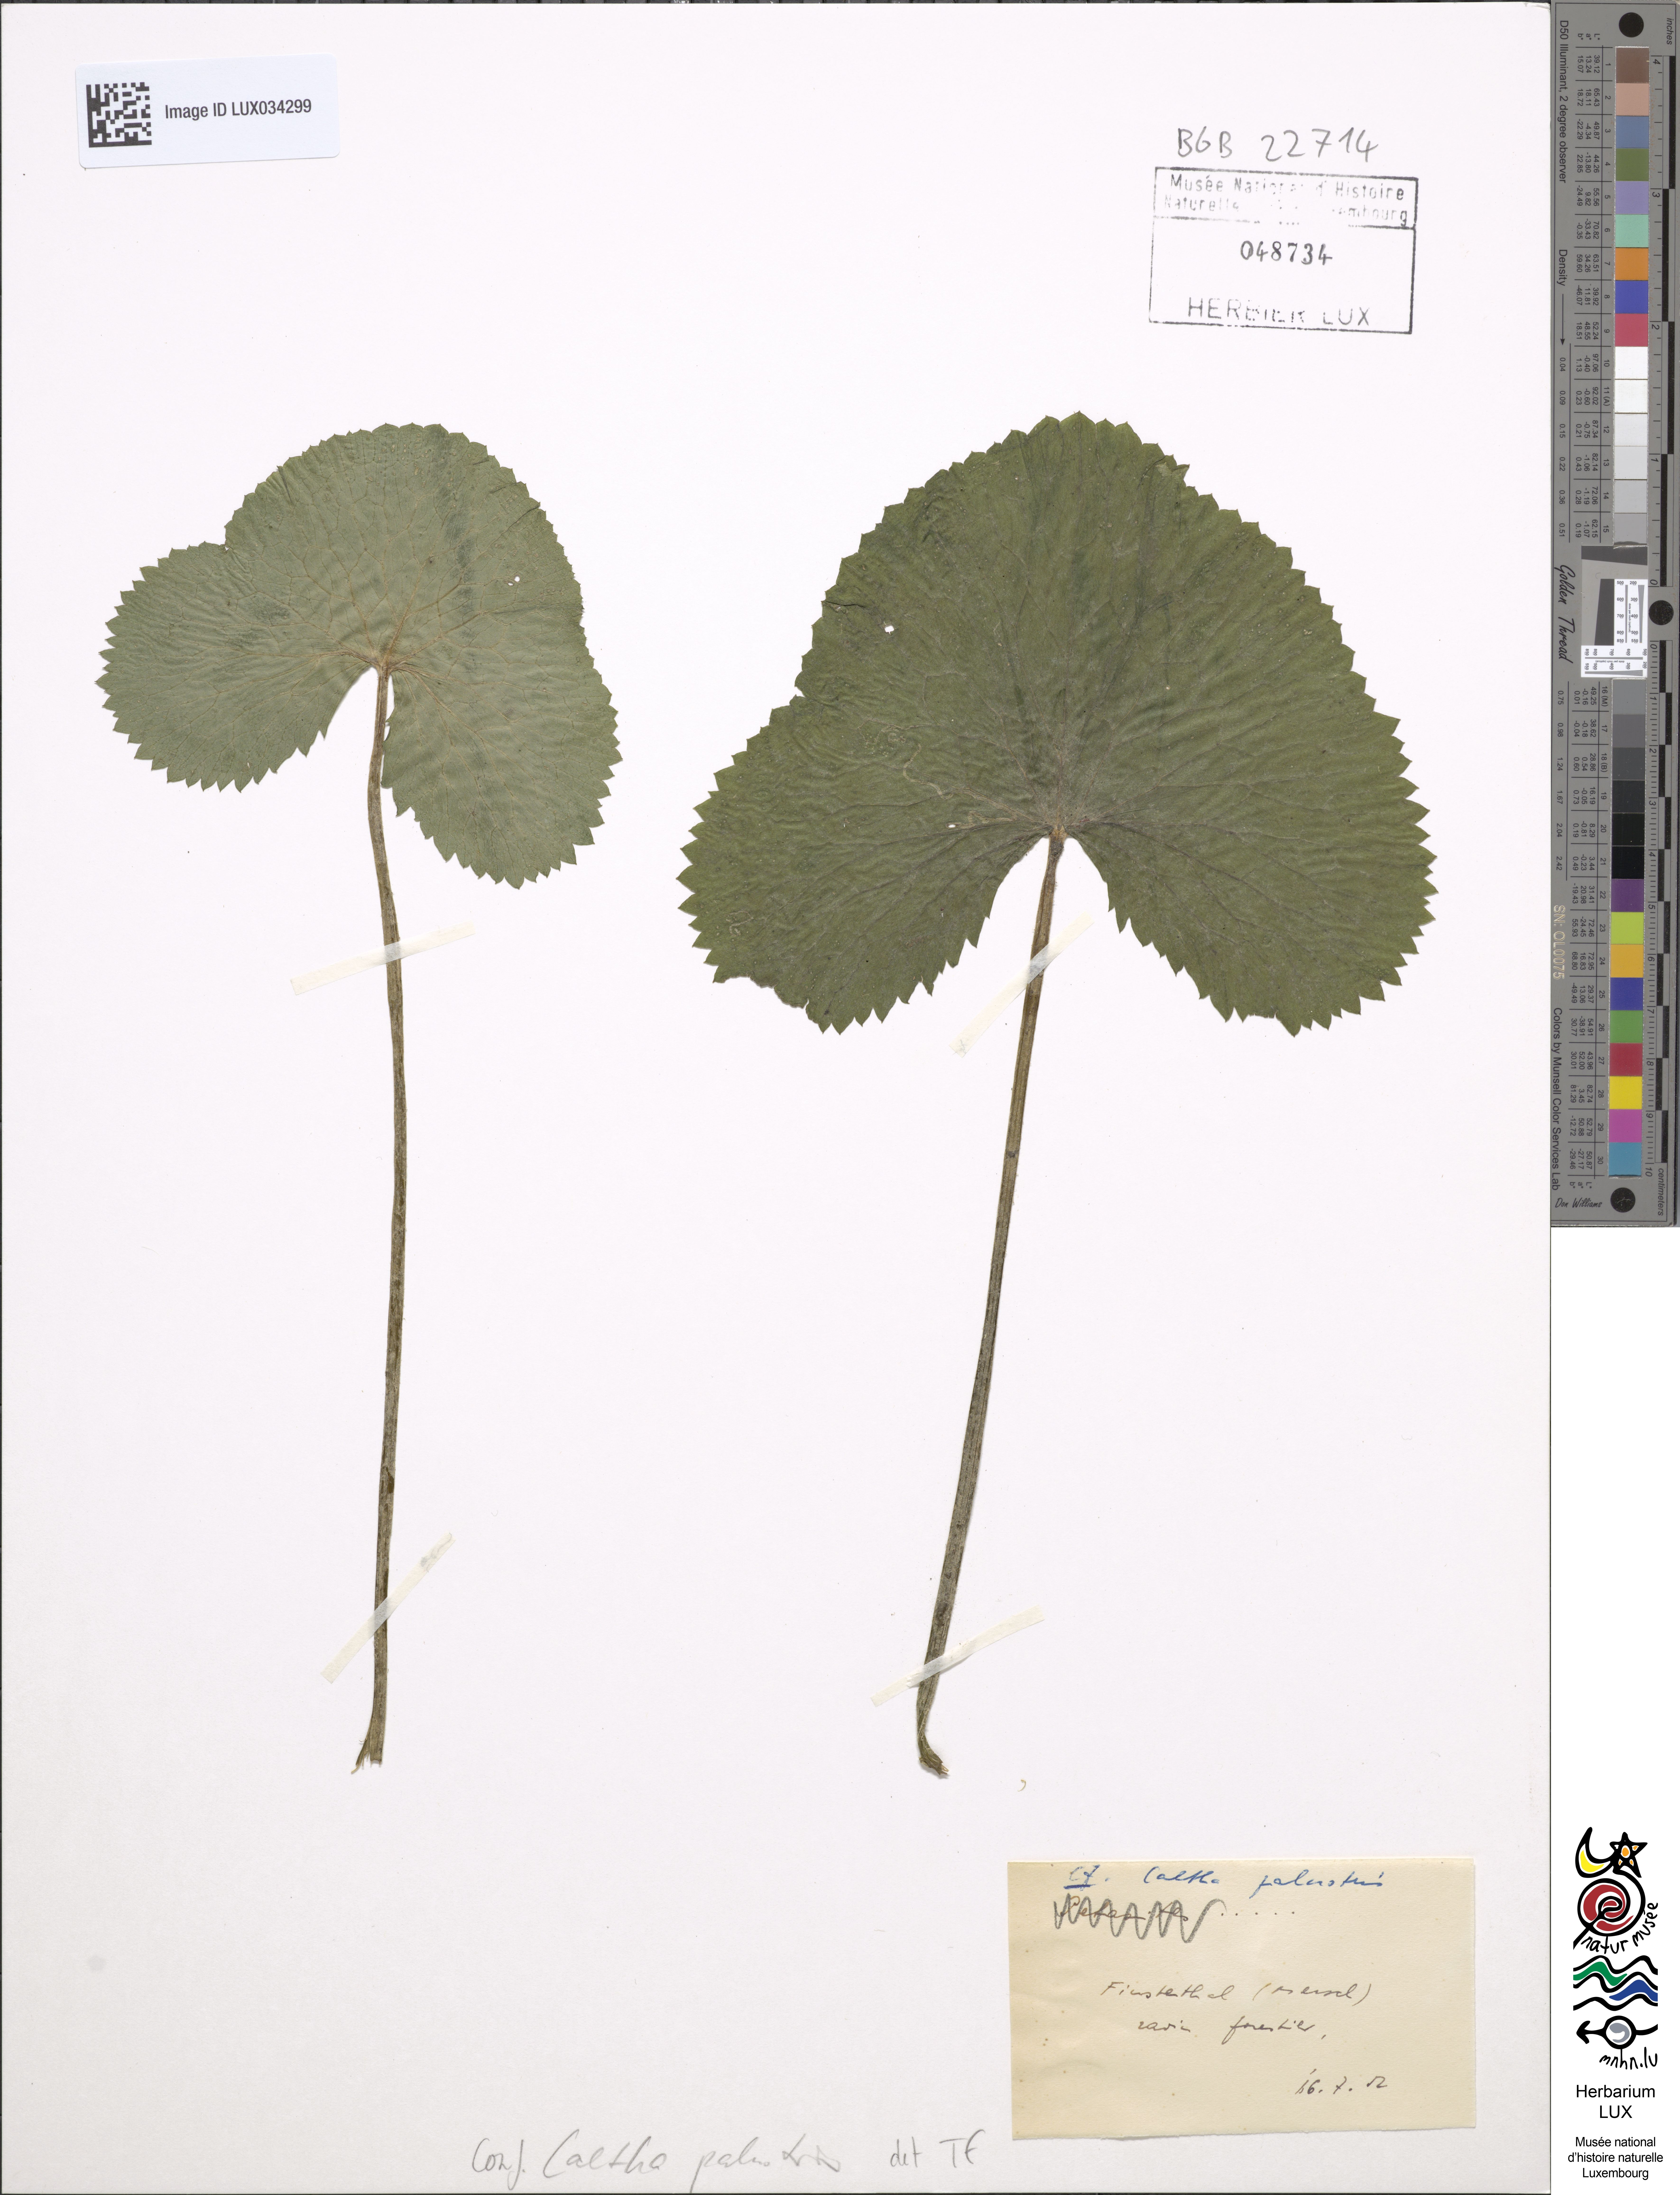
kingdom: Plantae
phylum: Tracheophyta
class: Magnoliopsida
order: Ranunculales
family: Ranunculaceae
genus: Caltha
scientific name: Caltha palustris
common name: Marsh marigold
